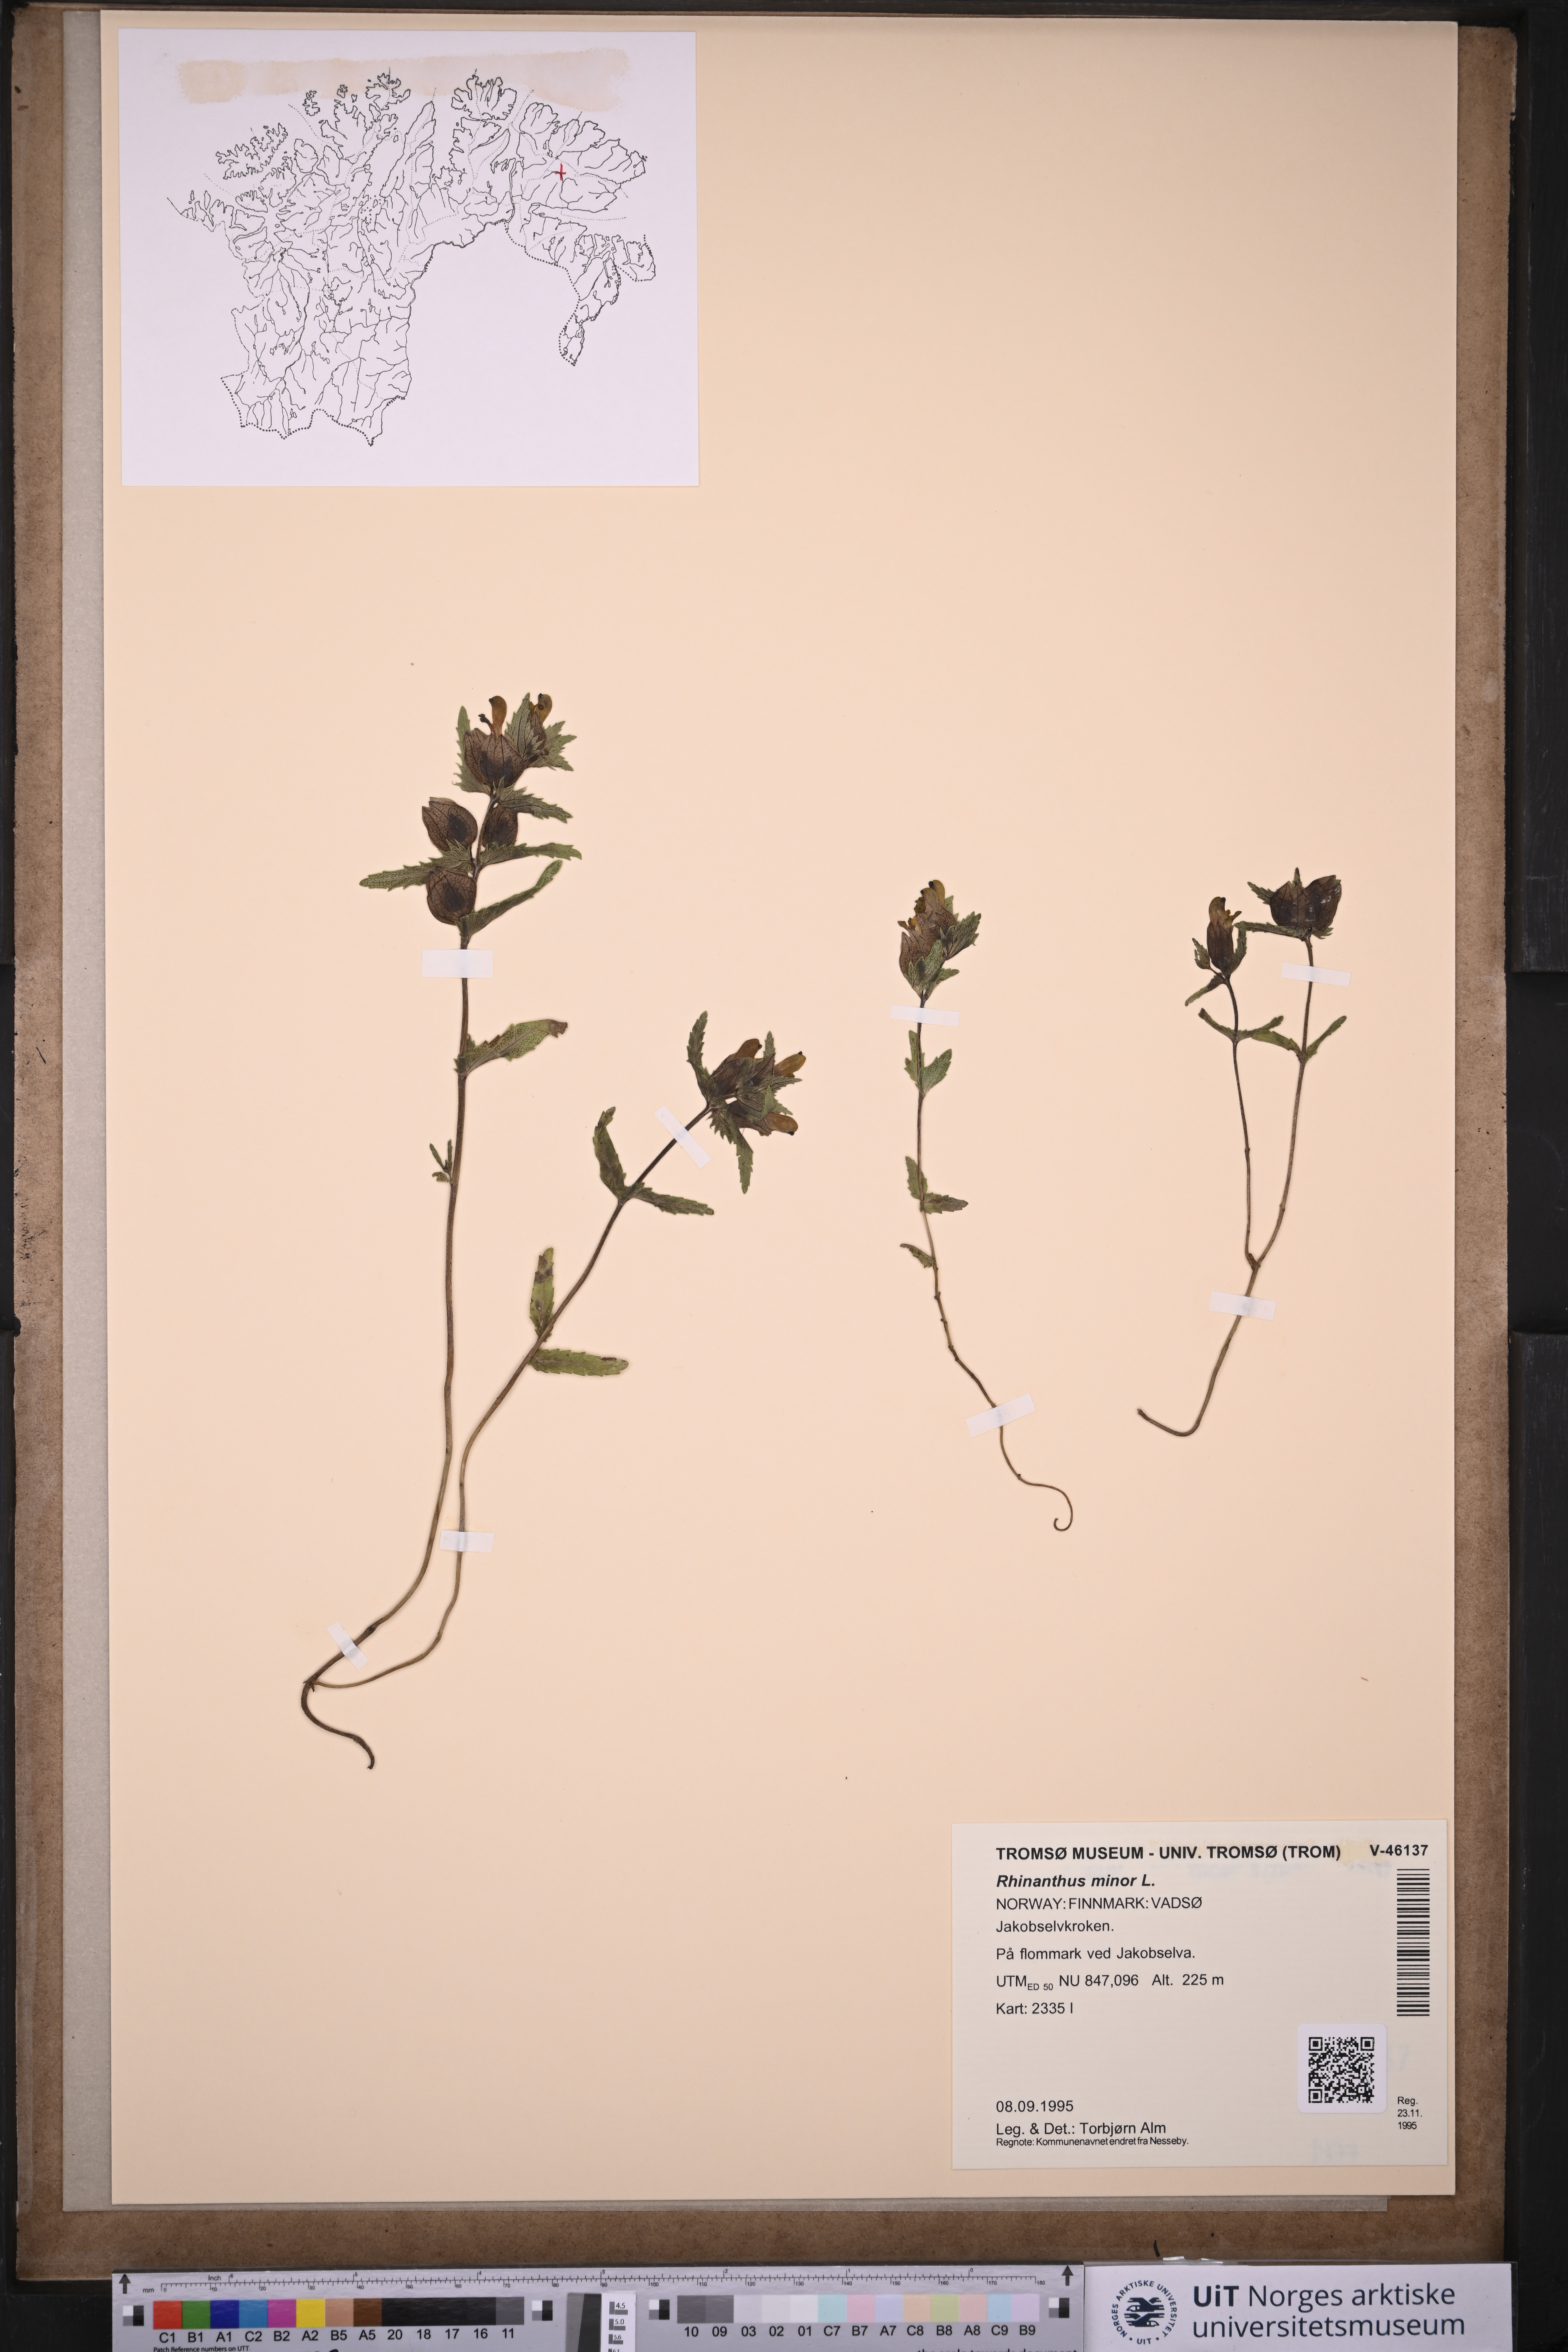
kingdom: Plantae
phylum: Tracheophyta
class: Magnoliopsida
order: Lamiales
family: Orobanchaceae
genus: Rhinanthus
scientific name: Rhinanthus minor
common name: Yellow-rattle
